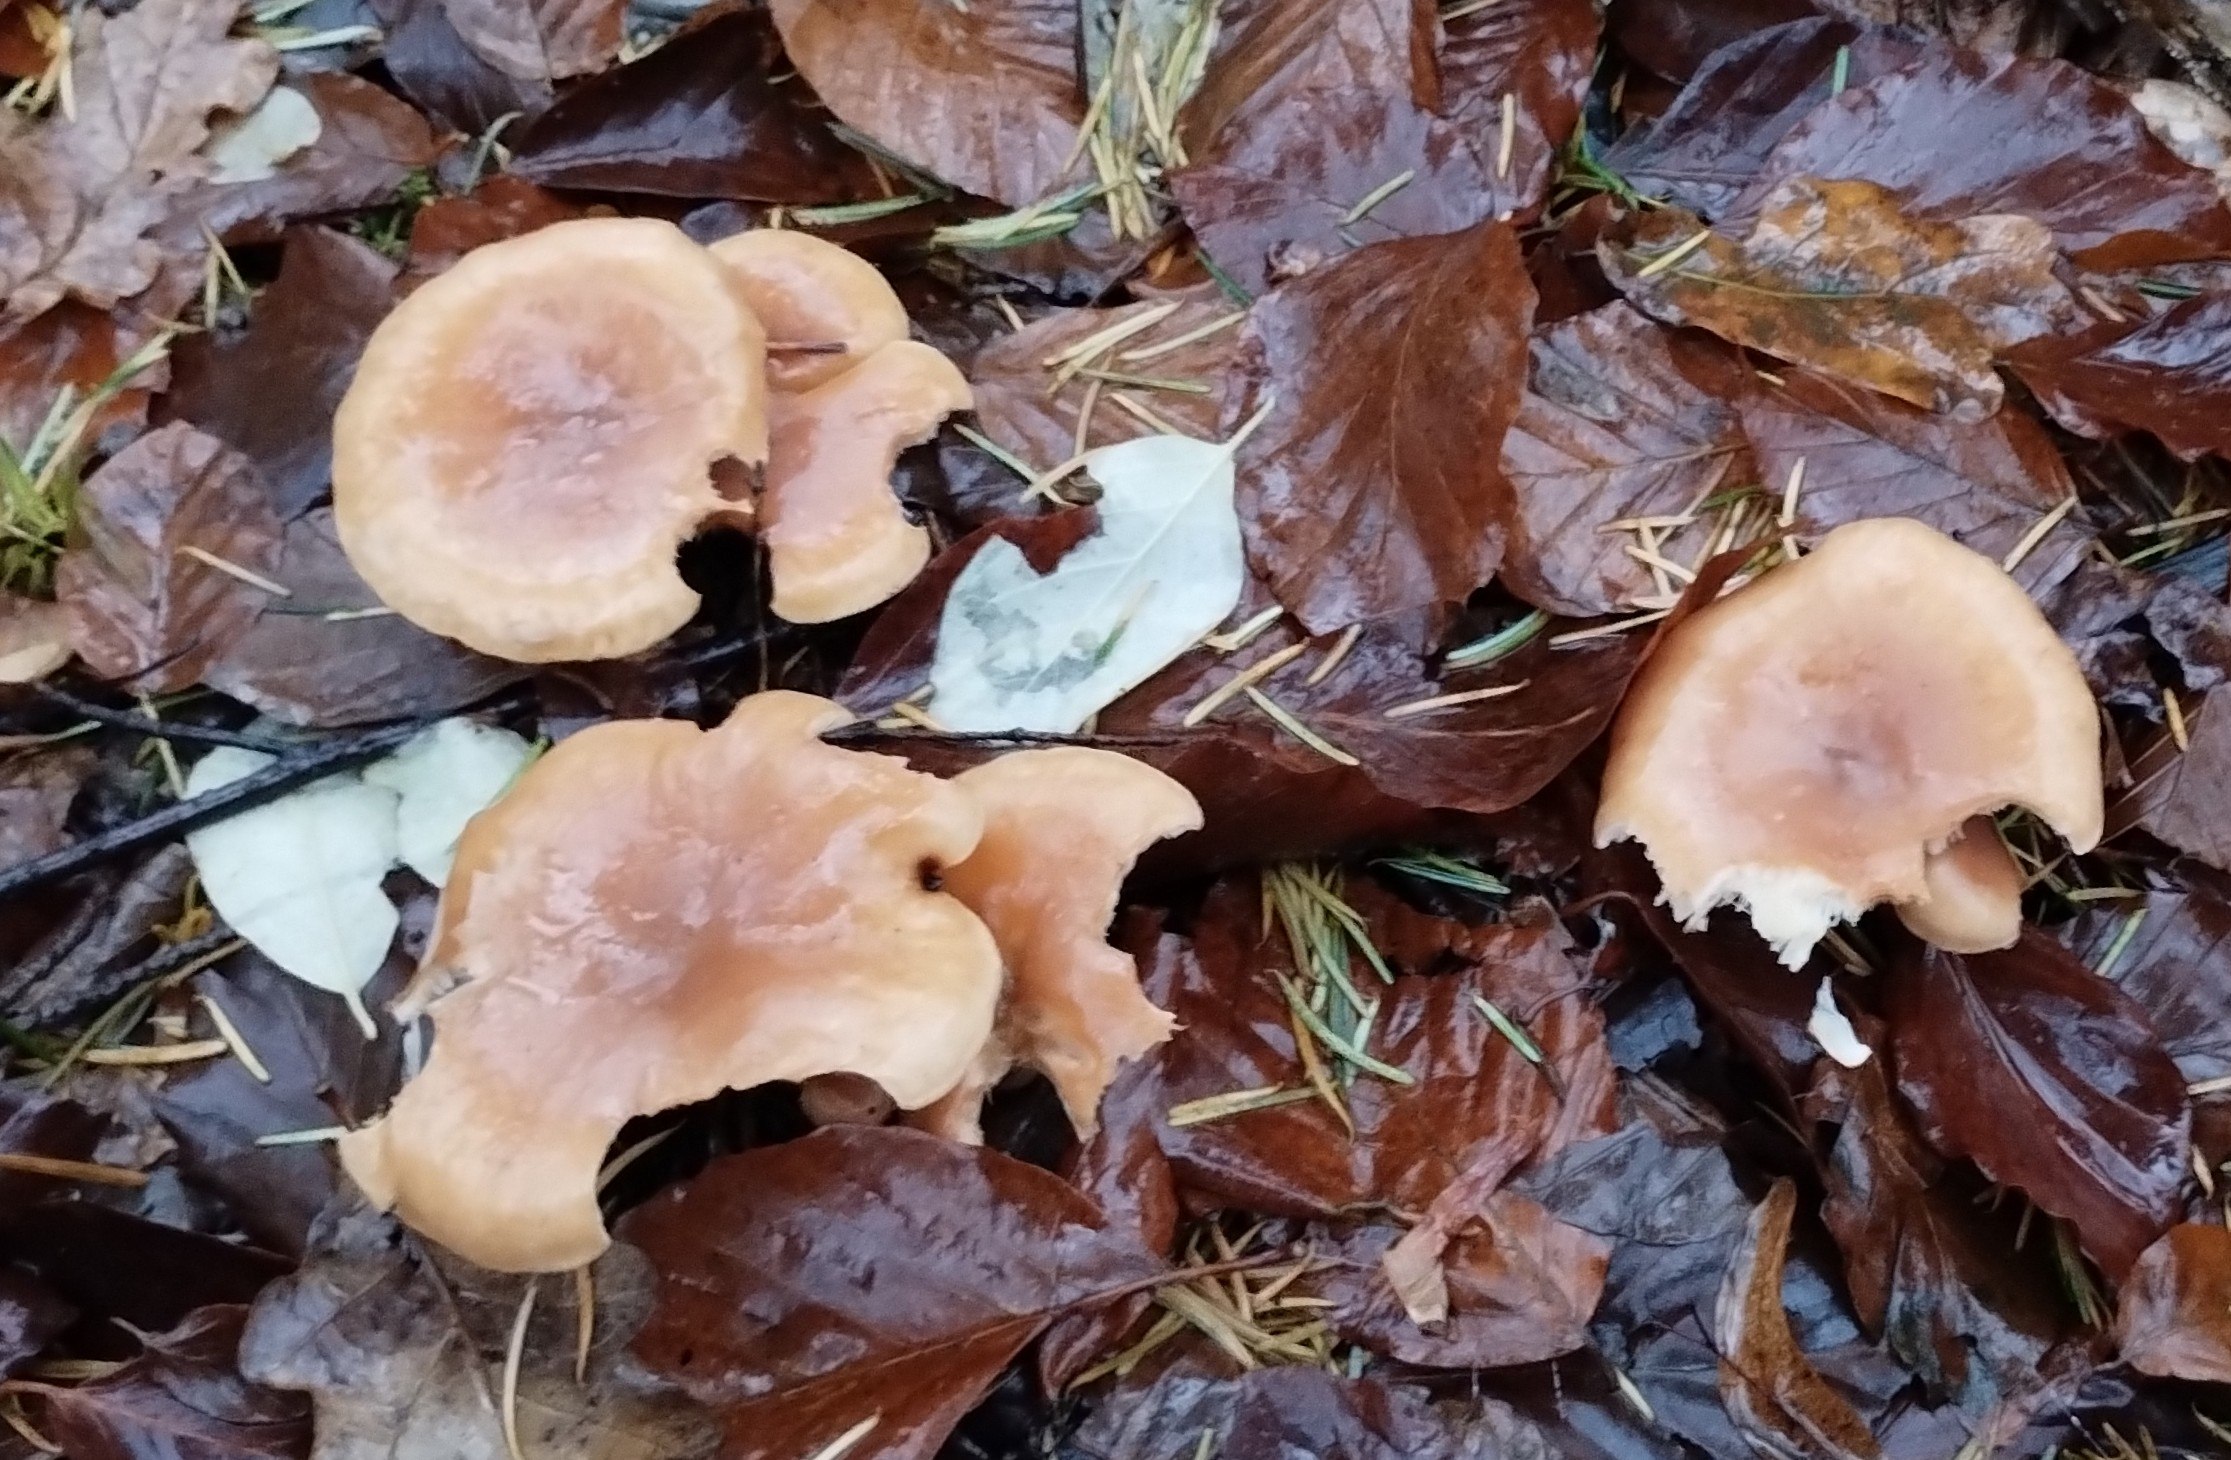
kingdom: Fungi
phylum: Basidiomycota
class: Agaricomycetes
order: Agaricales
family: Tricholomataceae
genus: Paralepista
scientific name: Paralepista flaccida
